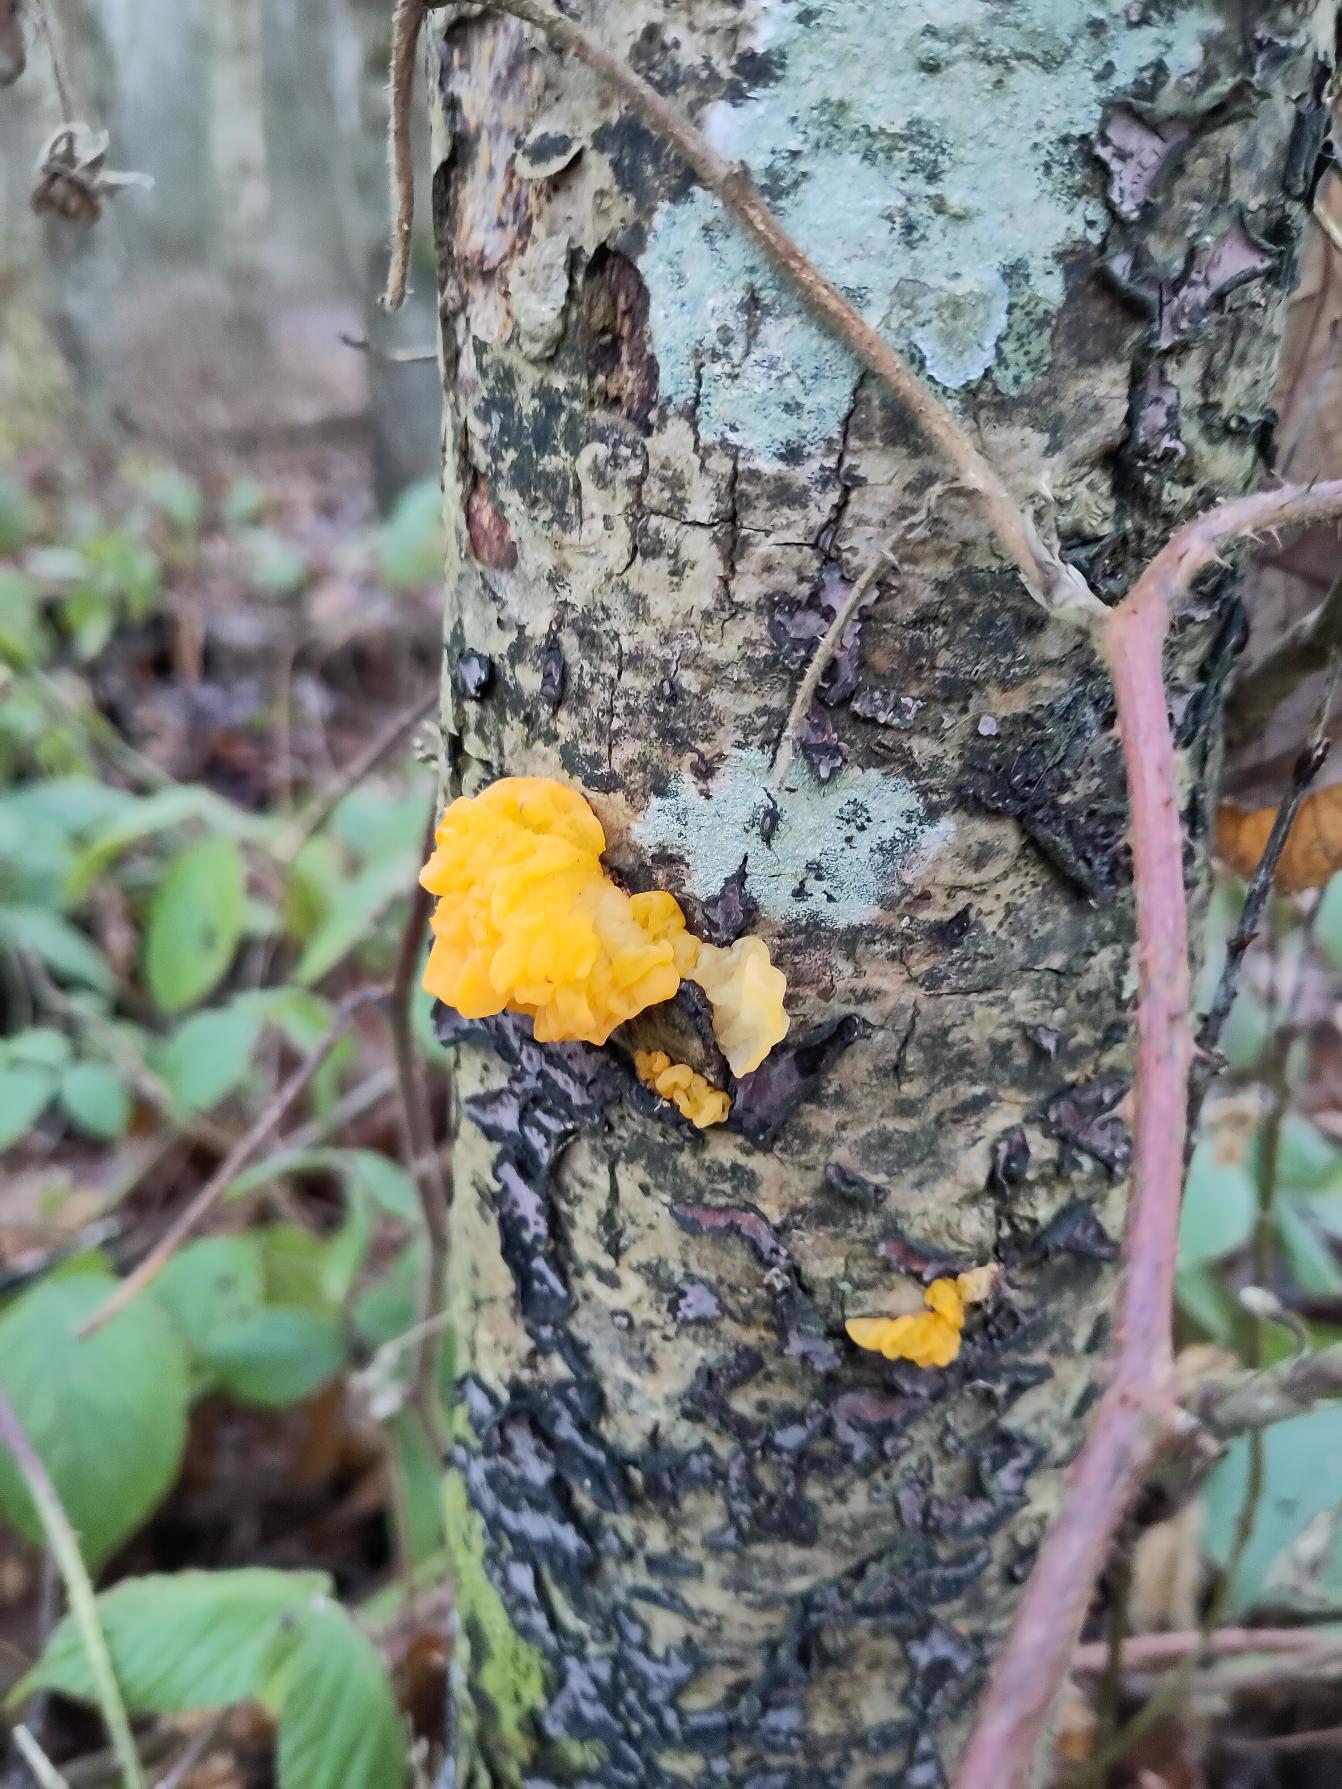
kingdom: Fungi
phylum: Basidiomycota
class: Tremellomycetes
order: Tremellales
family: Tremellaceae
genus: Tremella
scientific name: Tremella mesenterica
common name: Gul bævresvamp
